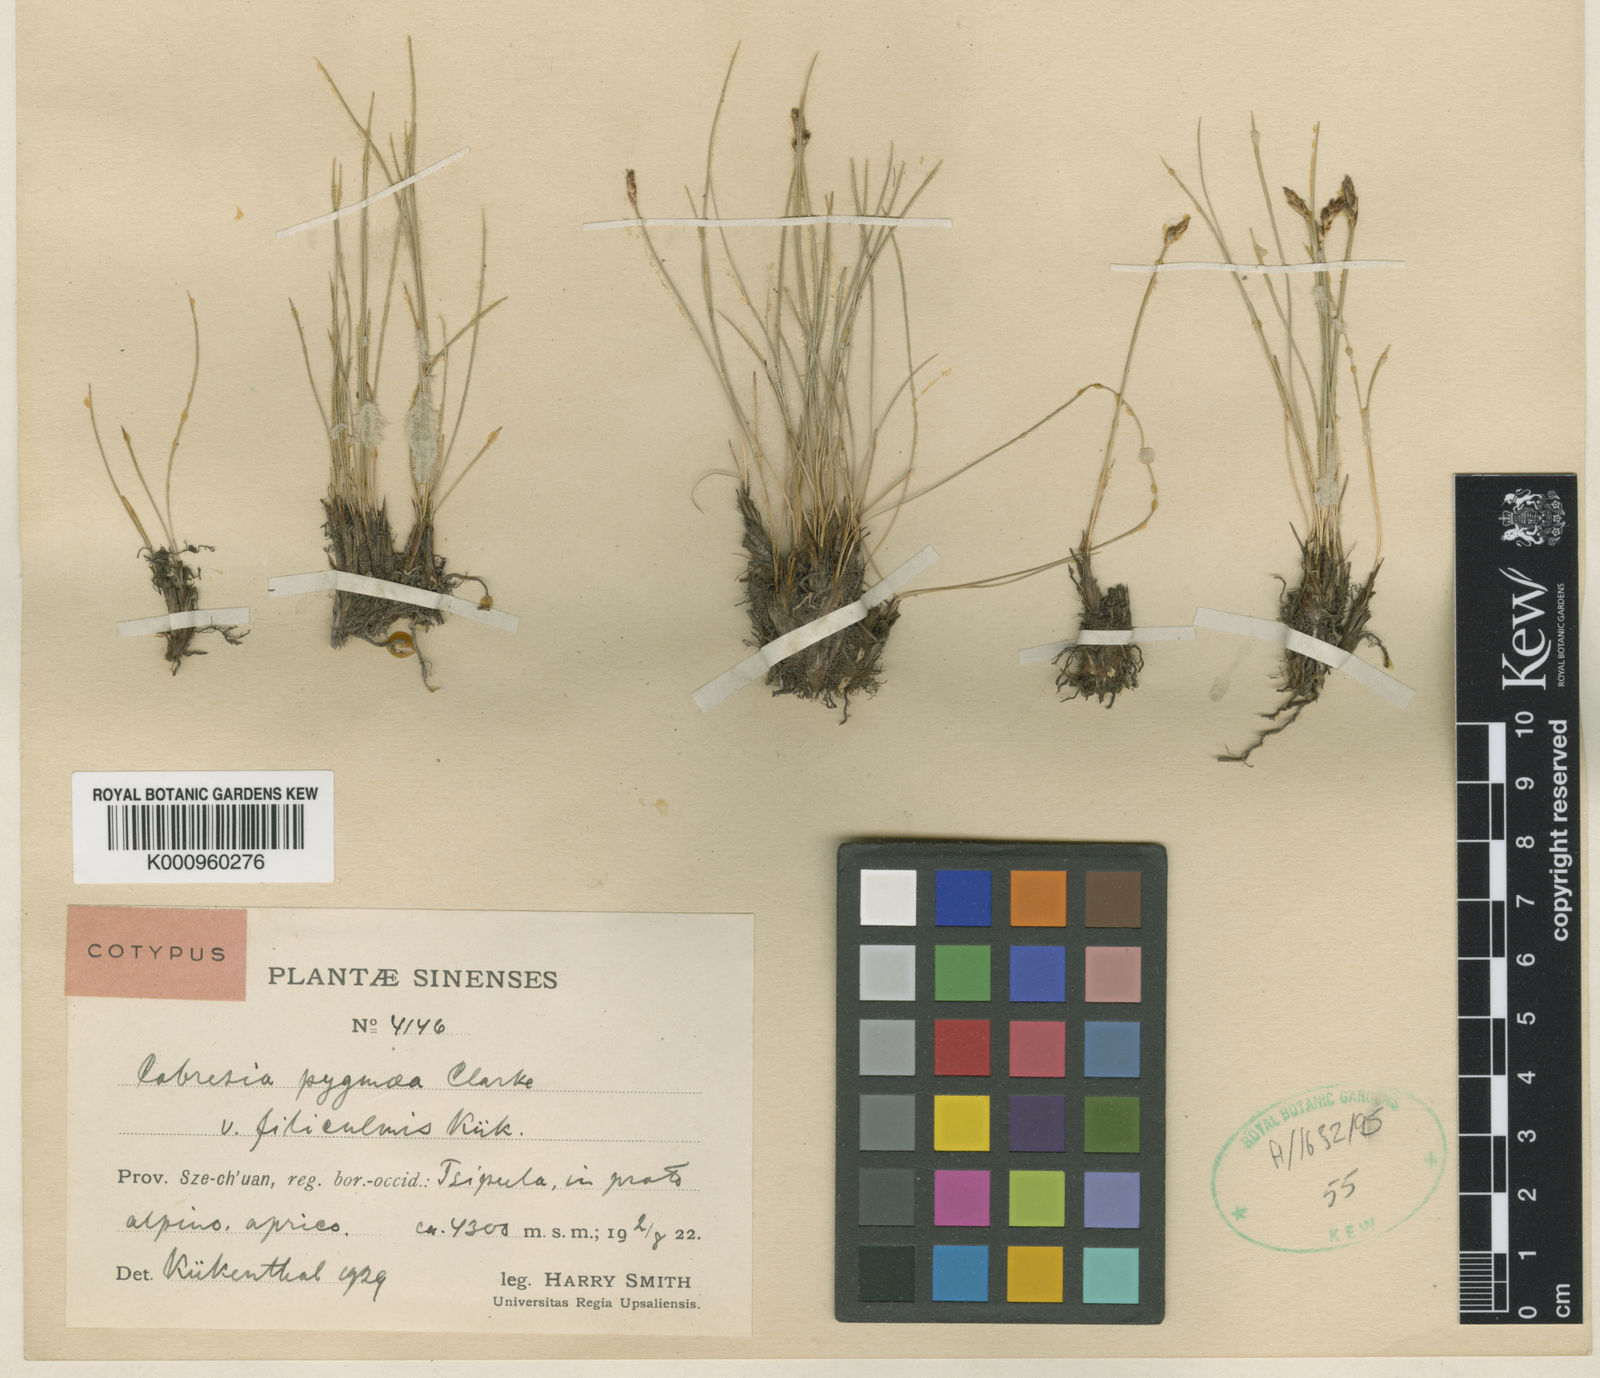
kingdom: Plantae
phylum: Tracheophyta
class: Liliopsida
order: Poales
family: Cyperaceae
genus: Carex
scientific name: Carex parvula
